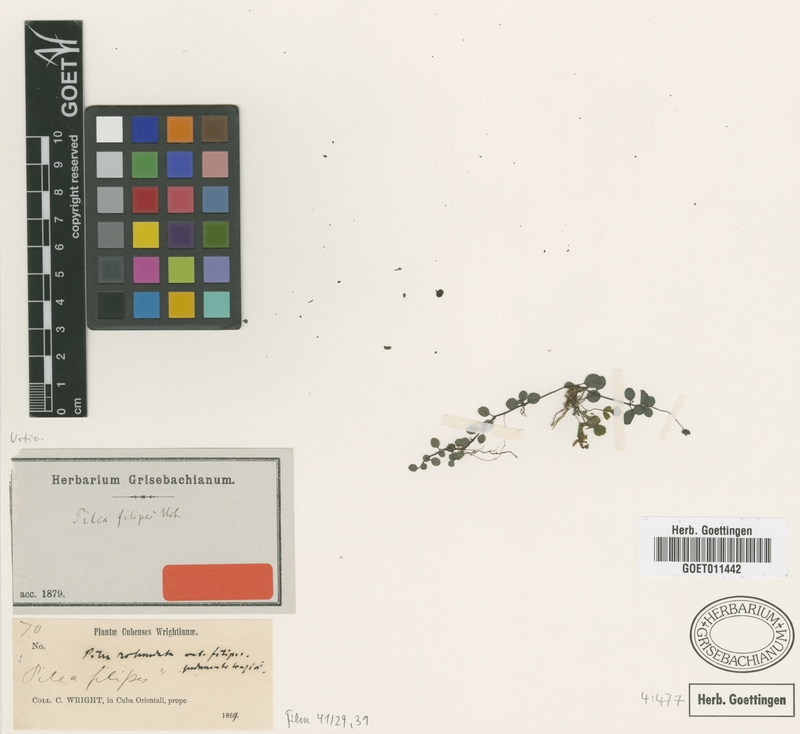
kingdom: Plantae
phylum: Tracheophyta
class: Magnoliopsida
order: Rosales
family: Urticaceae
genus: Pilea
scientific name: Pilea rotundata
